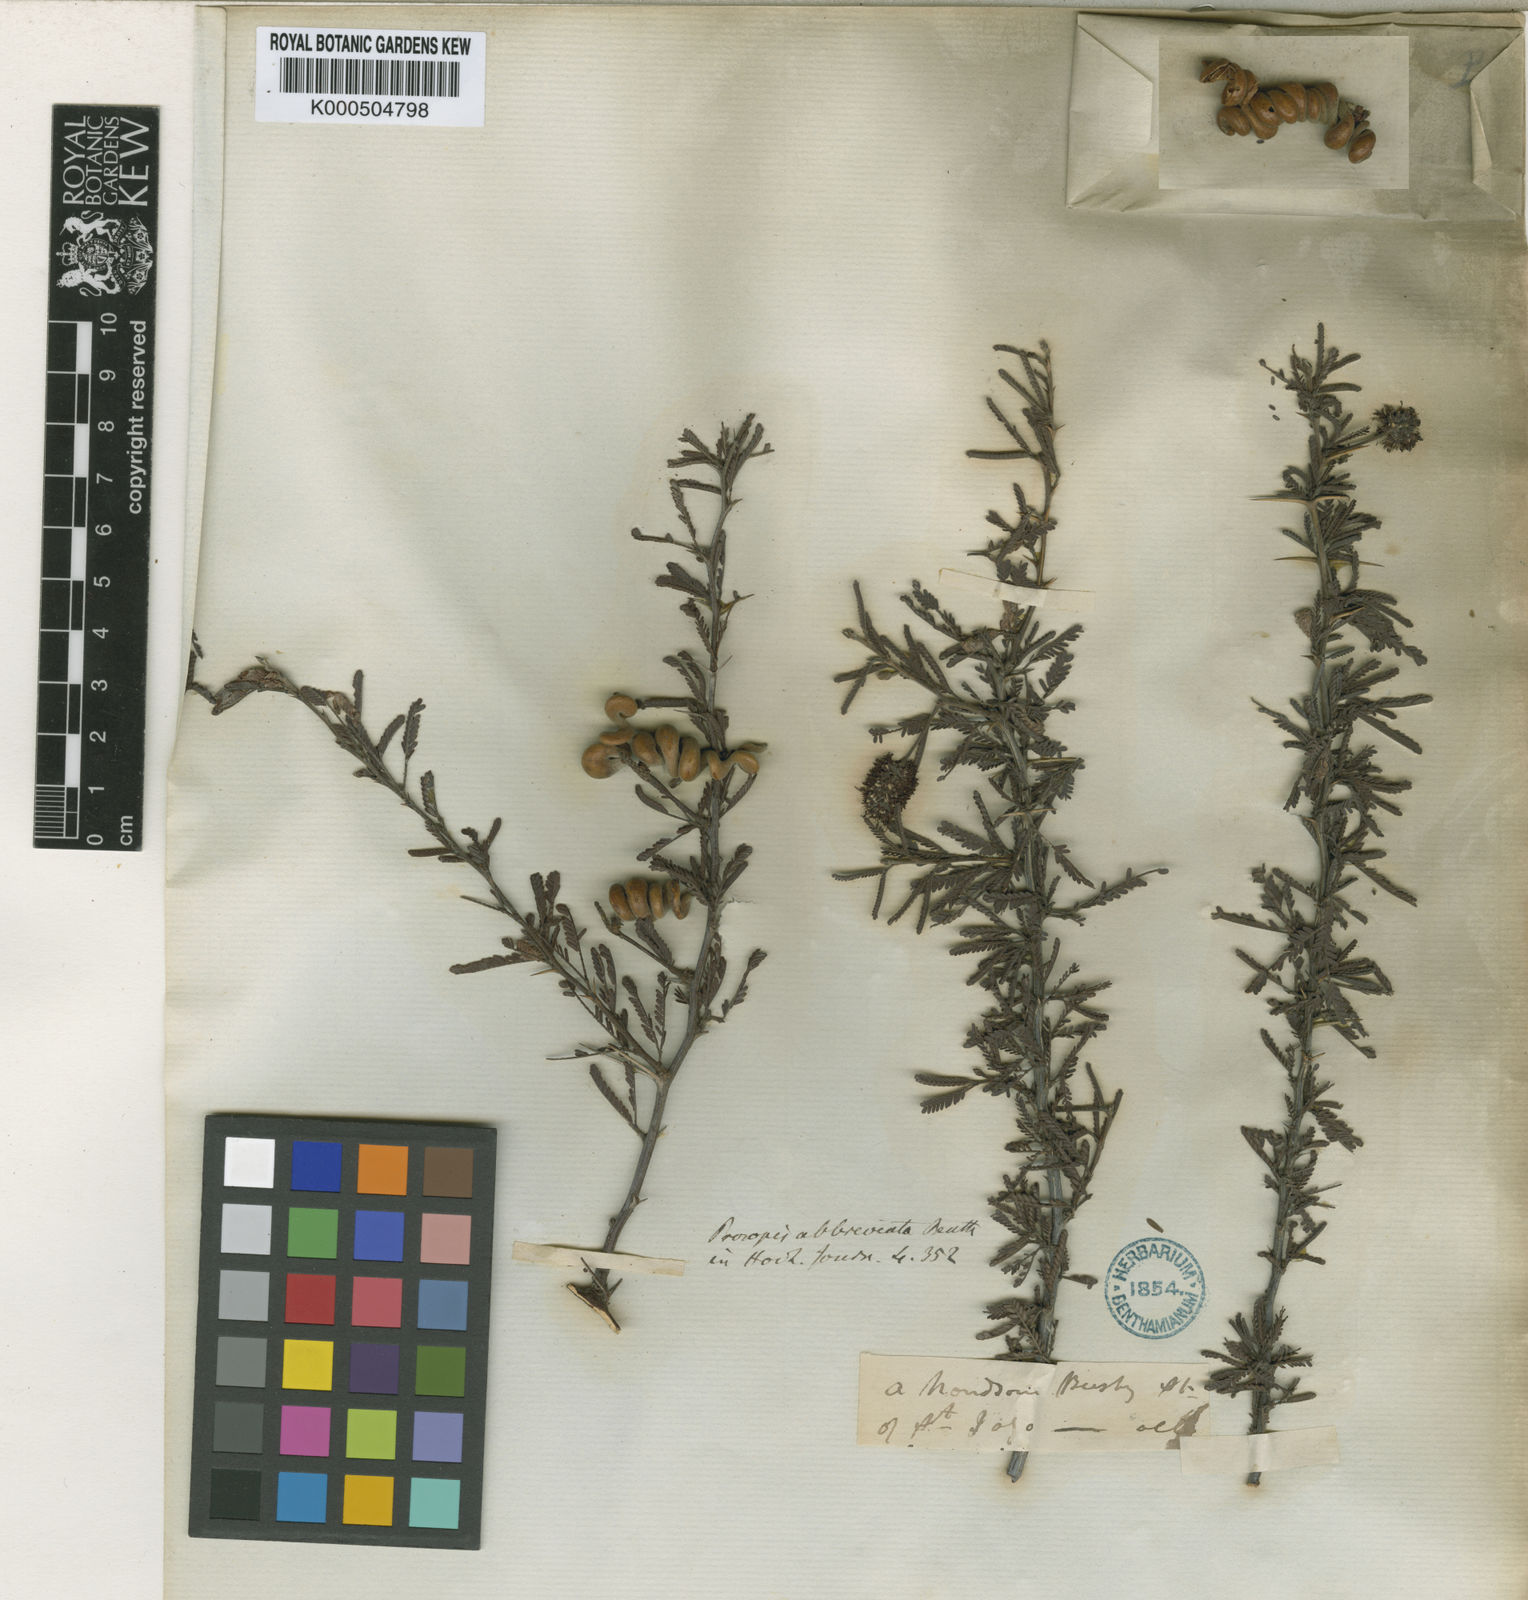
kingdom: Plantae
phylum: Tracheophyta
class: Magnoliopsida
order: Fabales
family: Fabaceae
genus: Prosopis
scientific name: Prosopis abbreviata
